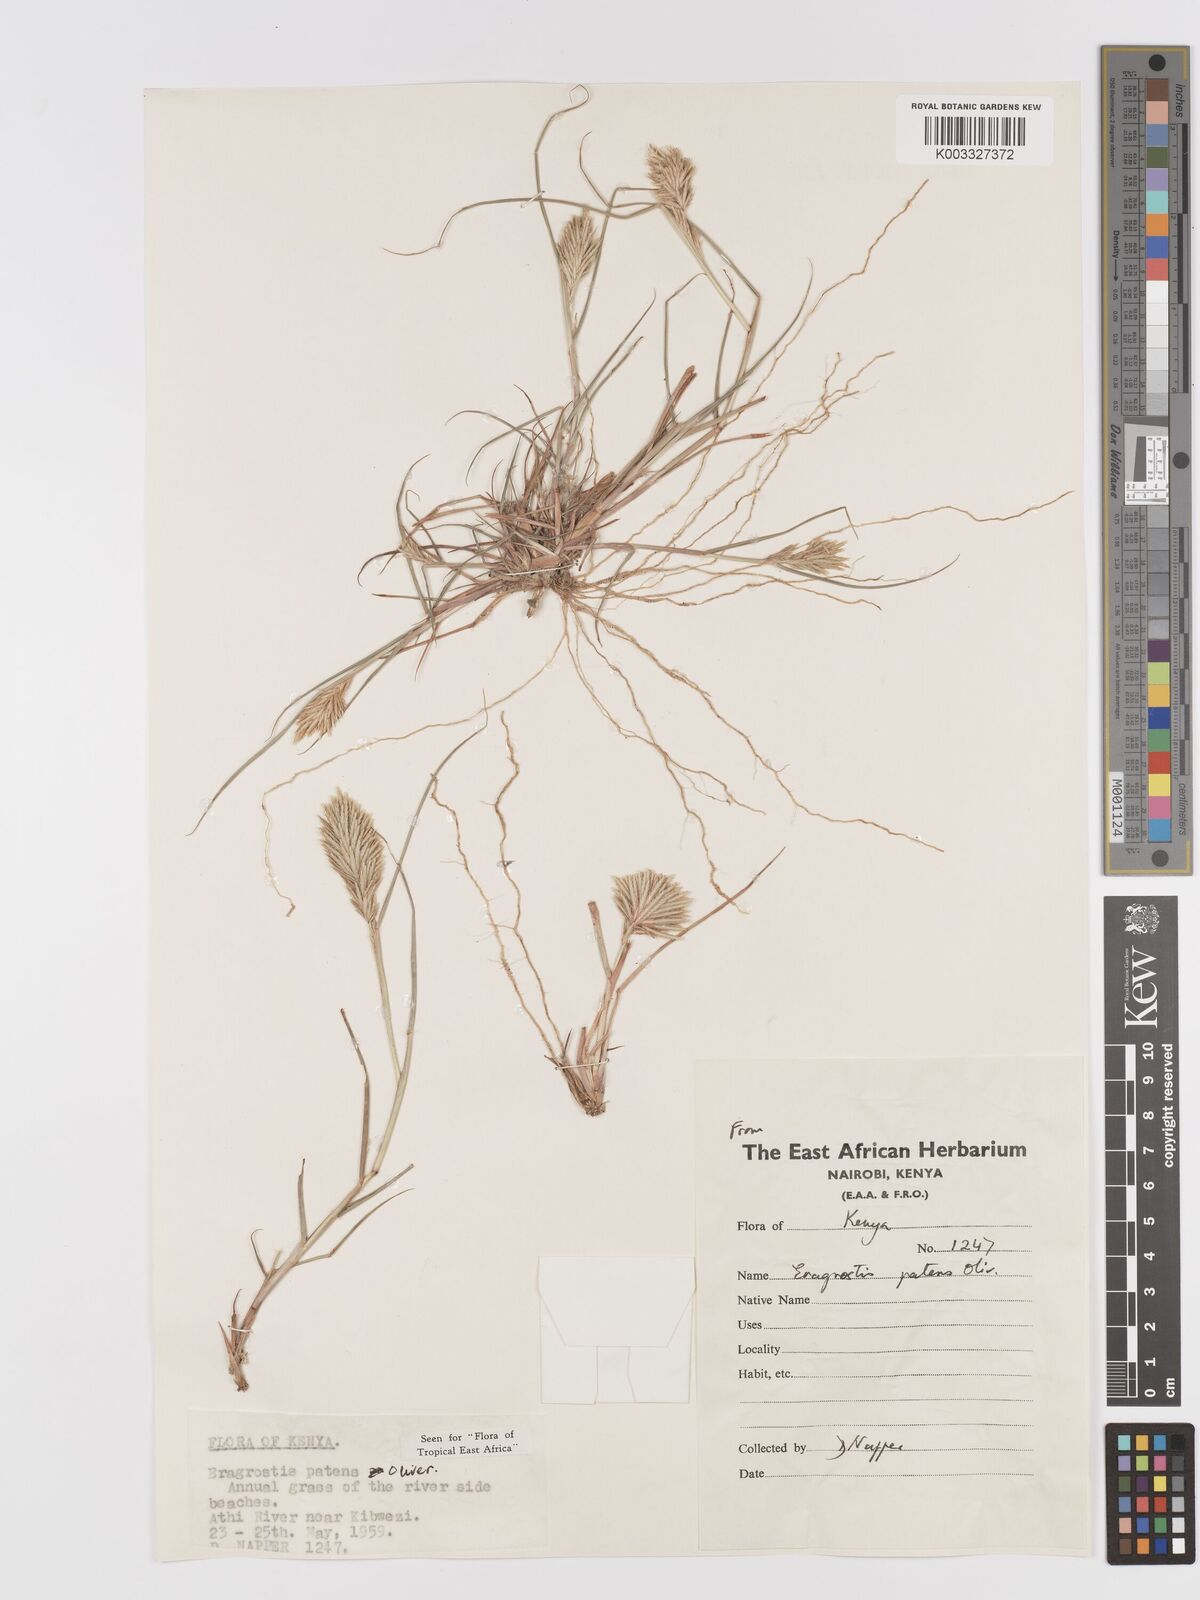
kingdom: Plantae
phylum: Tracheophyta
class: Liliopsida
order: Poales
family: Poaceae
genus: Eragrostis
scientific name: Eragrostis patens
